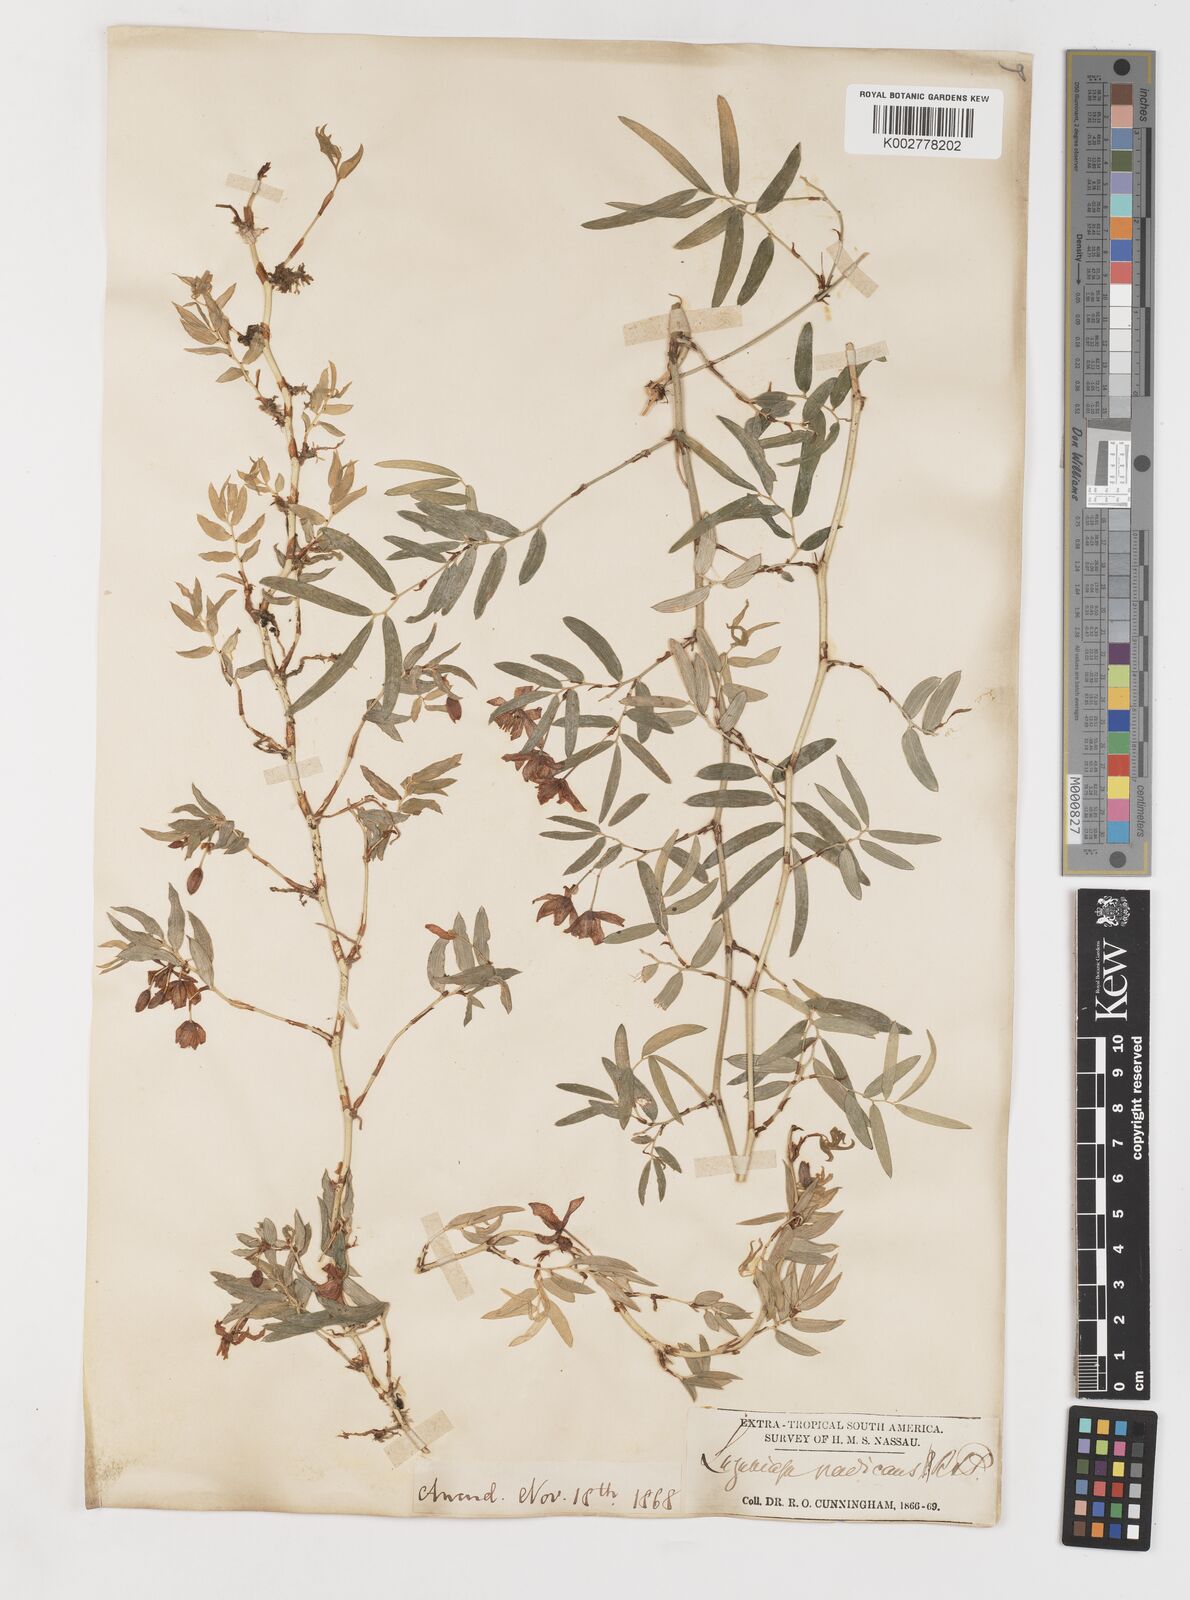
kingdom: Plantae
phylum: Tracheophyta
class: Liliopsida
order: Liliales
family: Alstroemeriaceae
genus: Luzuriaga
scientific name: Luzuriaga radicans
